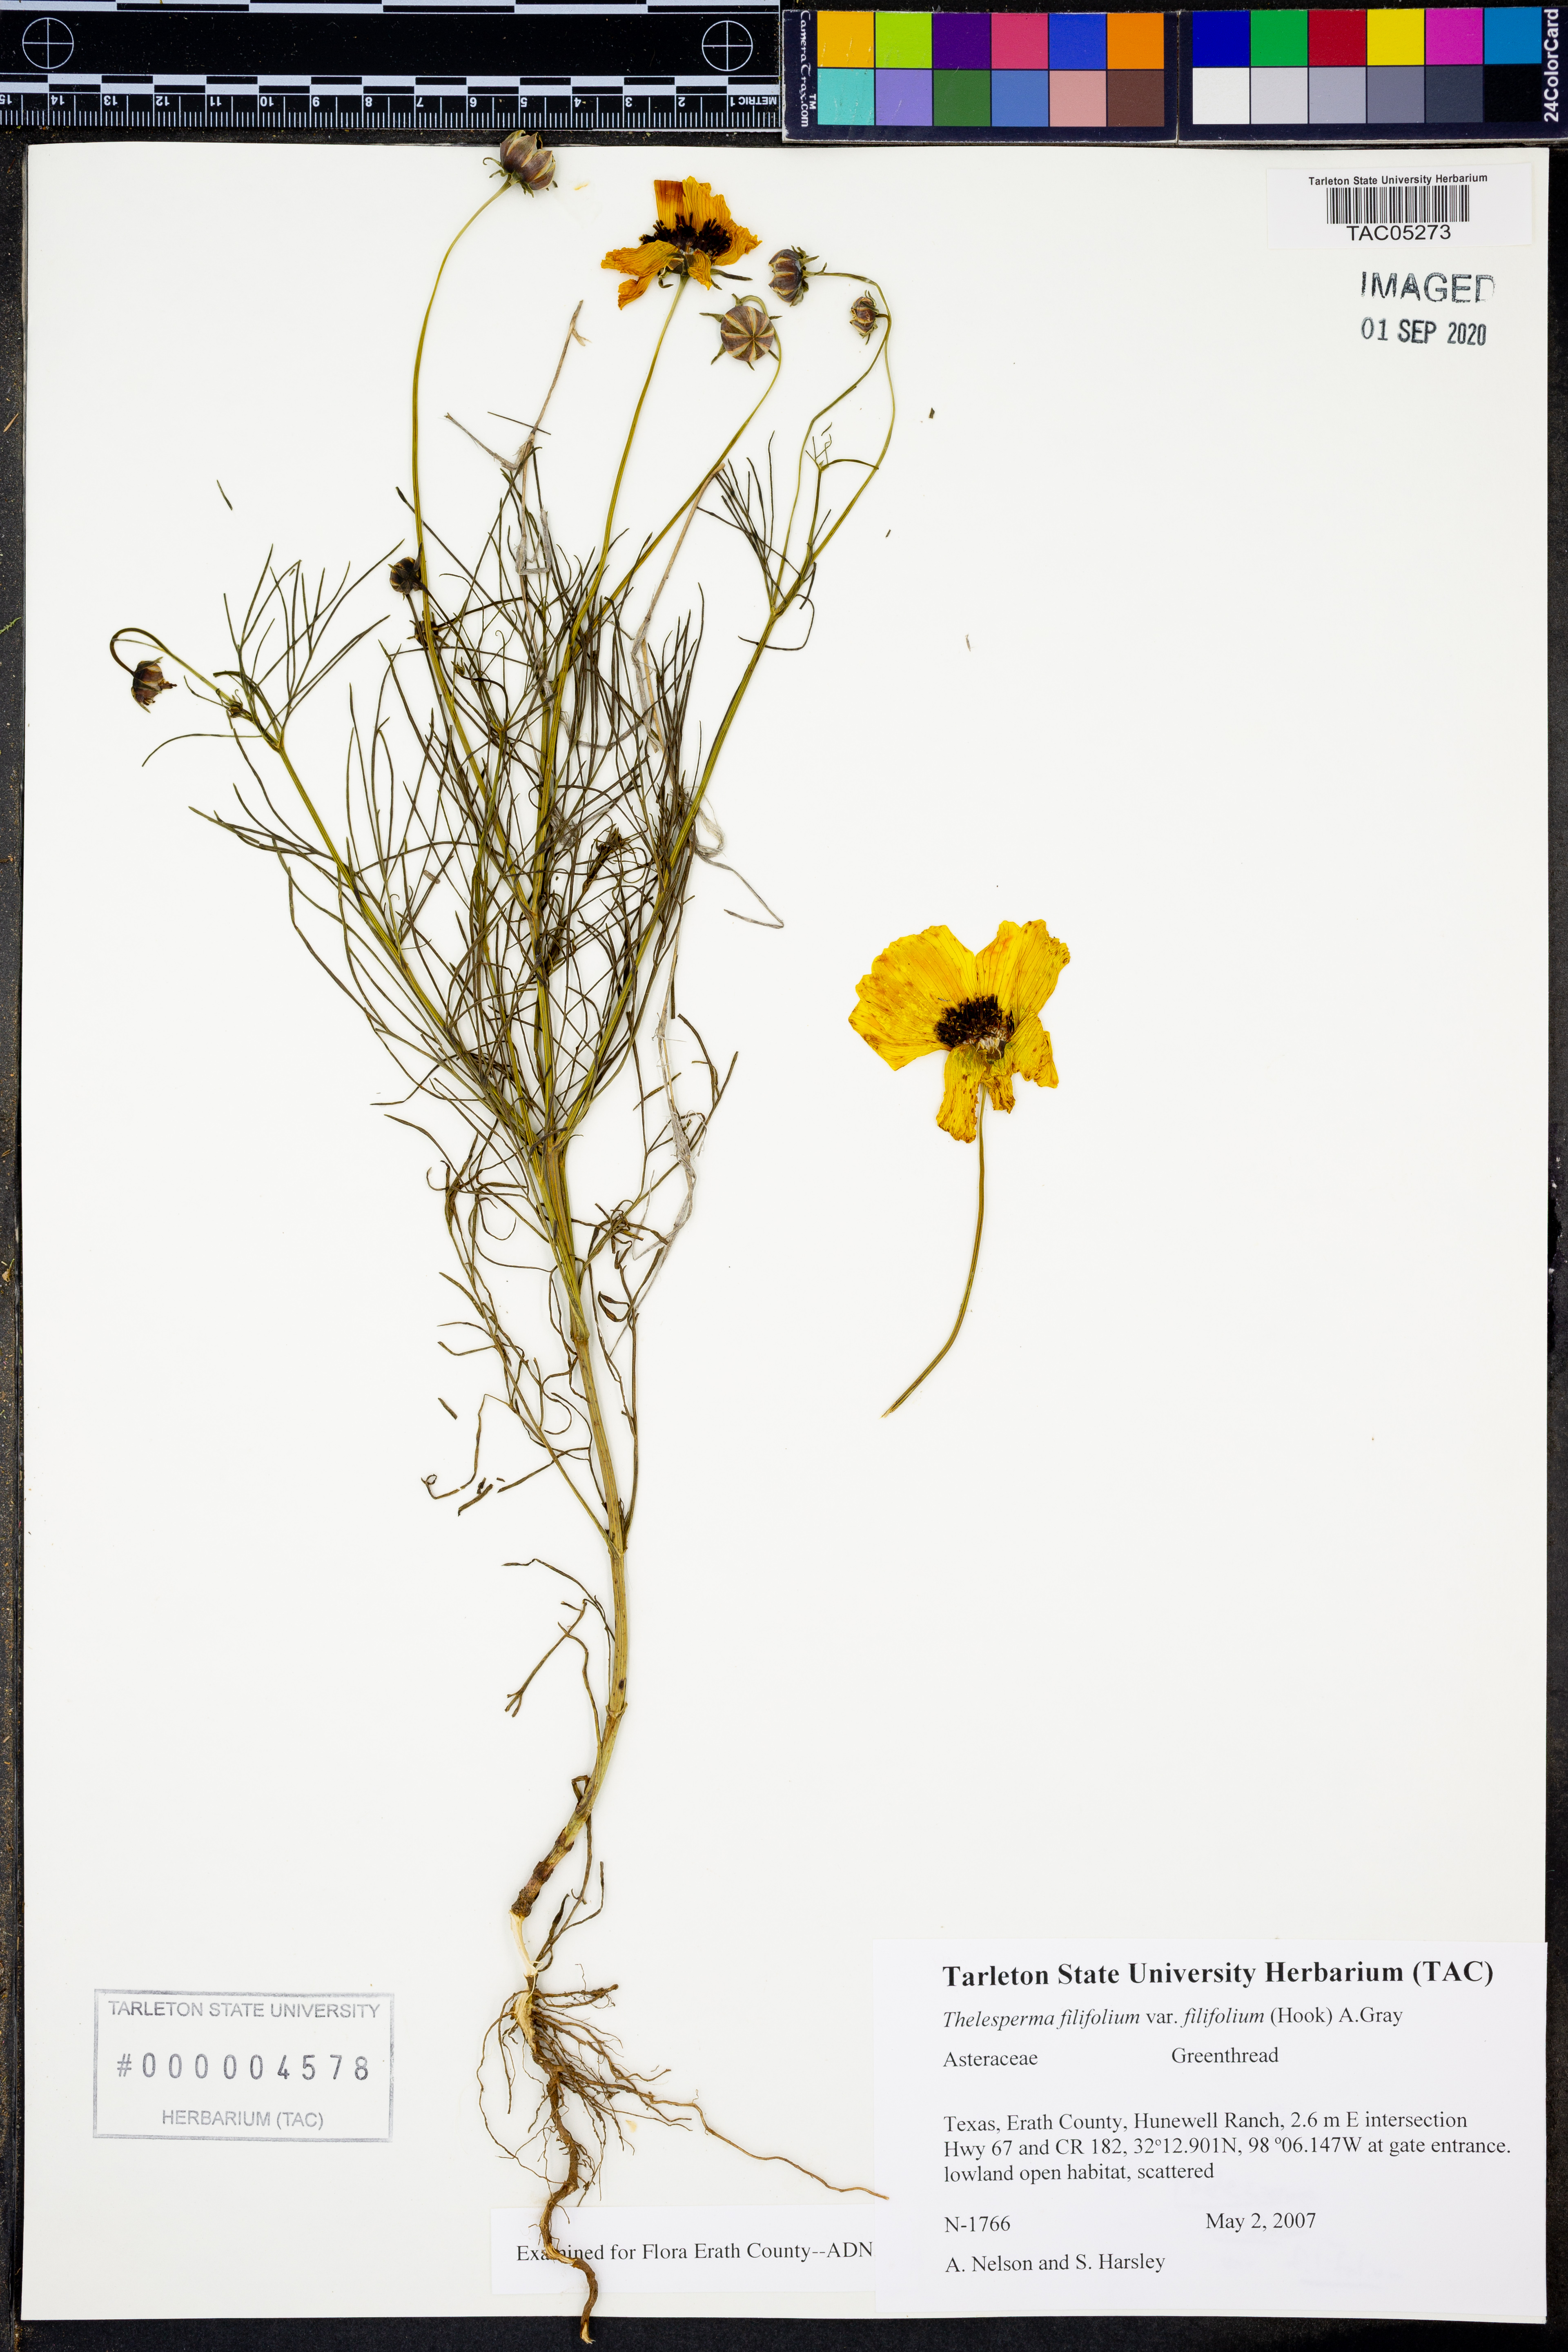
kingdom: Plantae
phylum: Tracheophyta
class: Magnoliopsida
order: Asterales
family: Asteraceae
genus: Thelesperma
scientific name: Thelesperma filifolium
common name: Stiff greenthread
